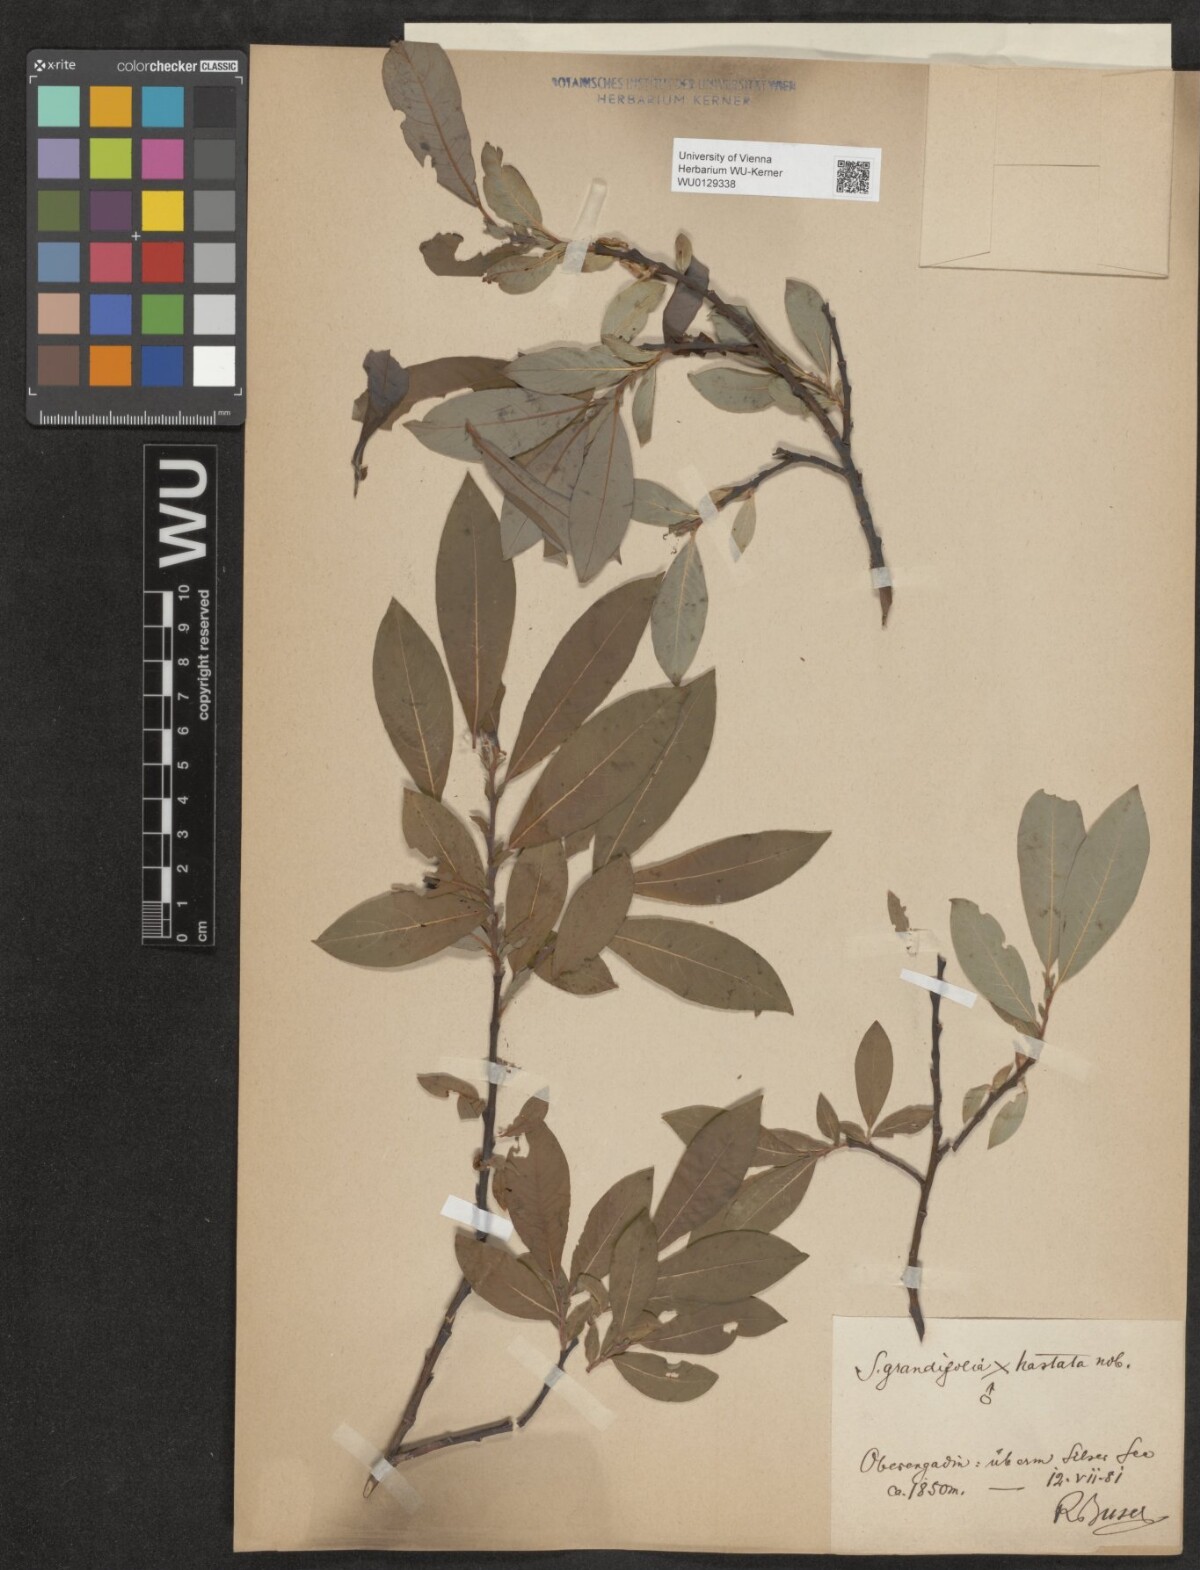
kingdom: Plantae
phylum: Tracheophyta
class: Magnoliopsida
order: Malpighiales
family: Salicaceae
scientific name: Salicaceae
